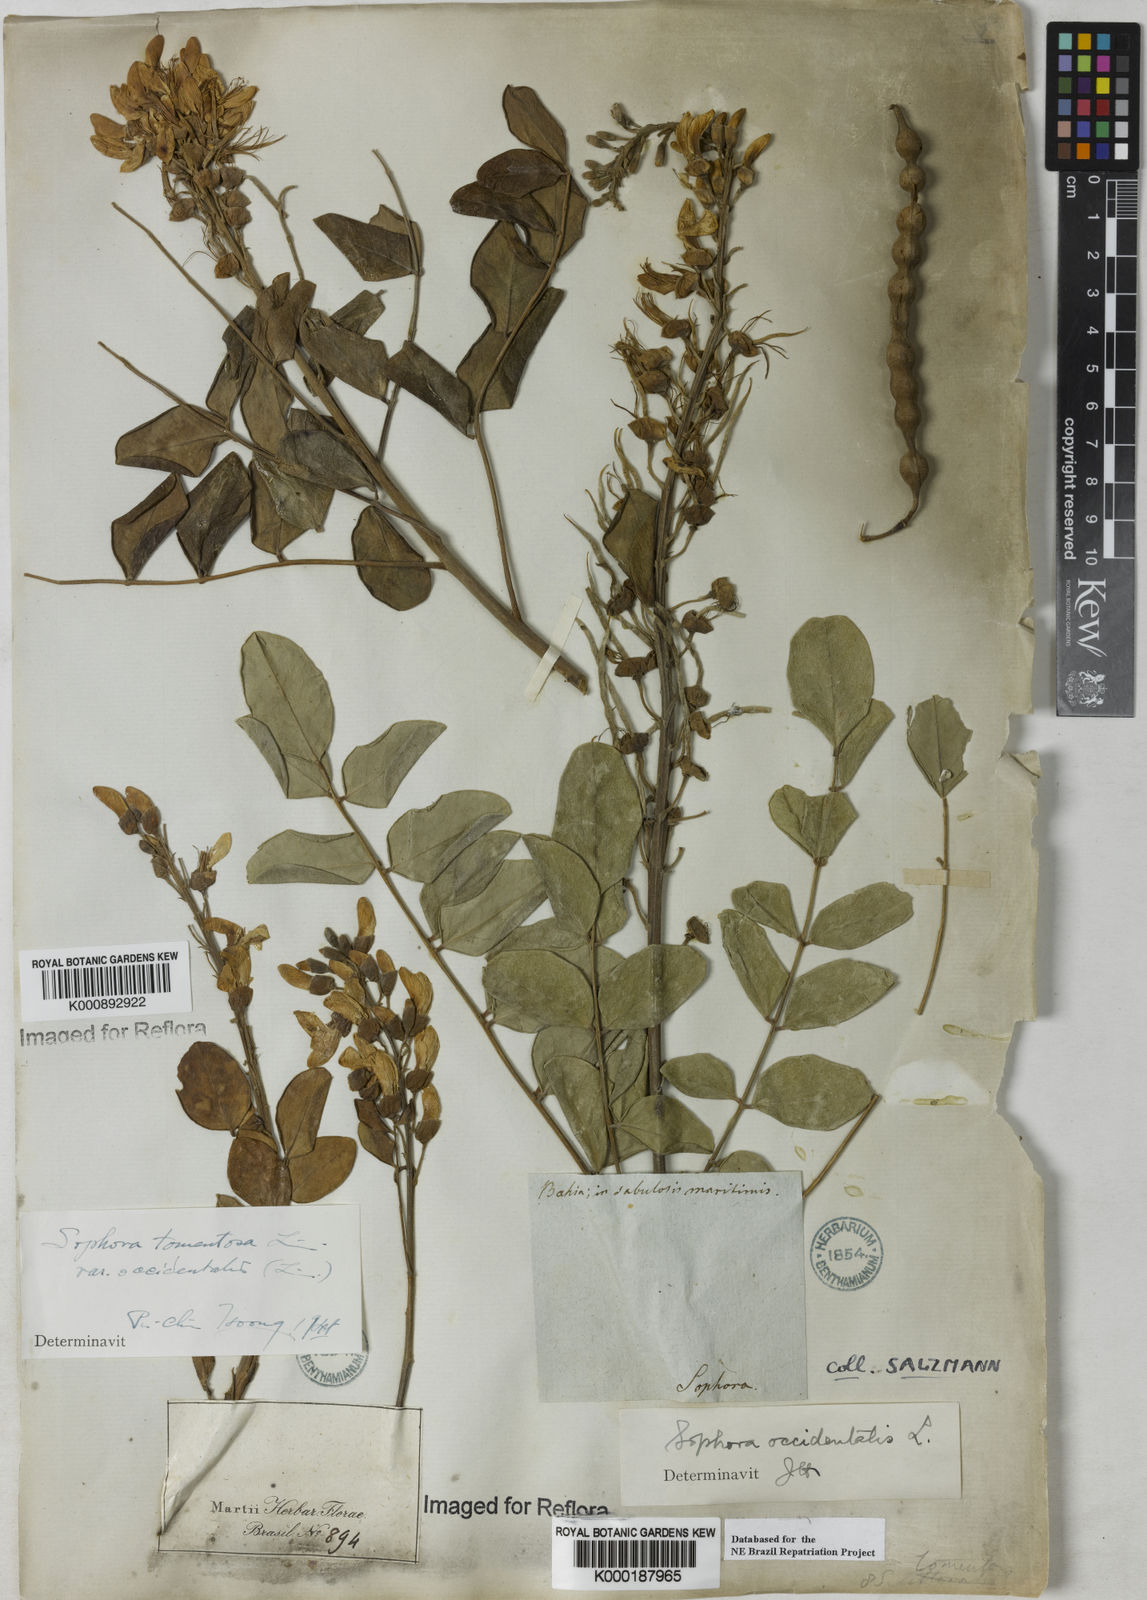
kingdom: Plantae
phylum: Tracheophyta
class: Magnoliopsida
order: Fabales
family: Fabaceae
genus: Sophora
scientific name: Sophora
